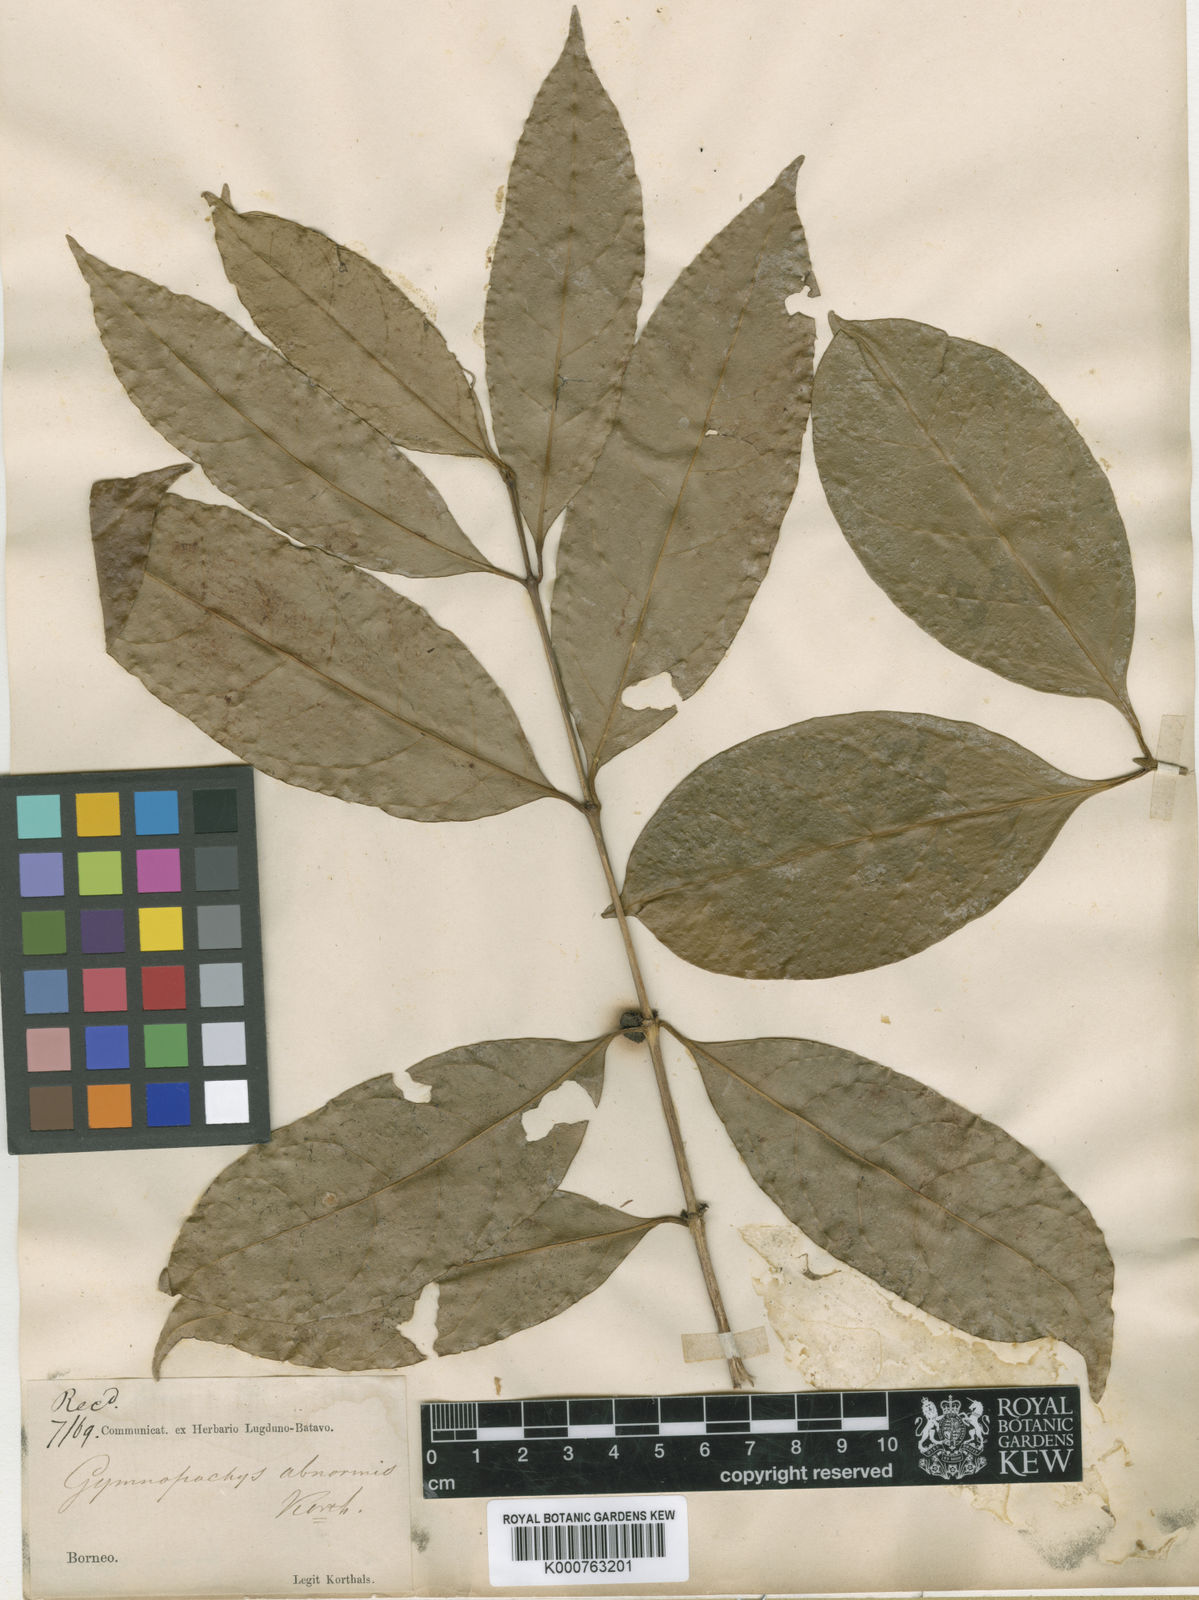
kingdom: Plantae
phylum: Tracheophyta
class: Magnoliopsida
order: Gentianales
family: Rubiaceae
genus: Discospermum
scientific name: Discospermum abnorme
